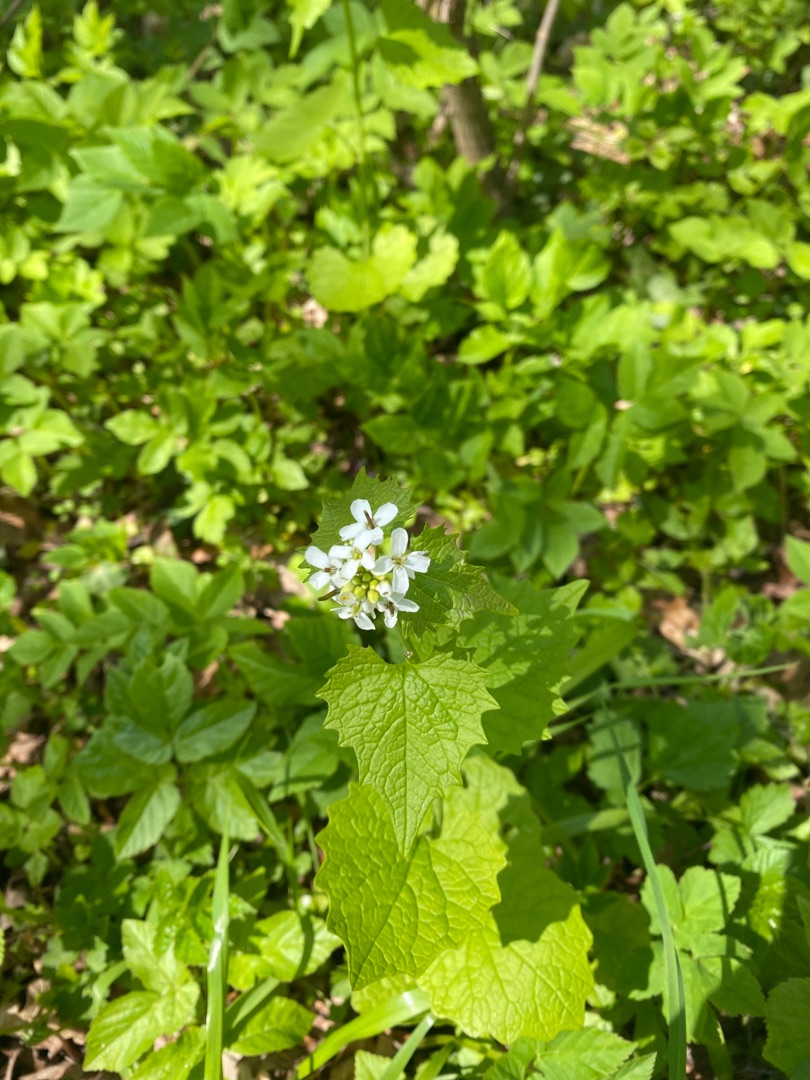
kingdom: Plantae
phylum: Tracheophyta
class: Magnoliopsida
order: Brassicales
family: Brassicaceae
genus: Alliaria
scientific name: Alliaria petiolata
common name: Løgkarse
